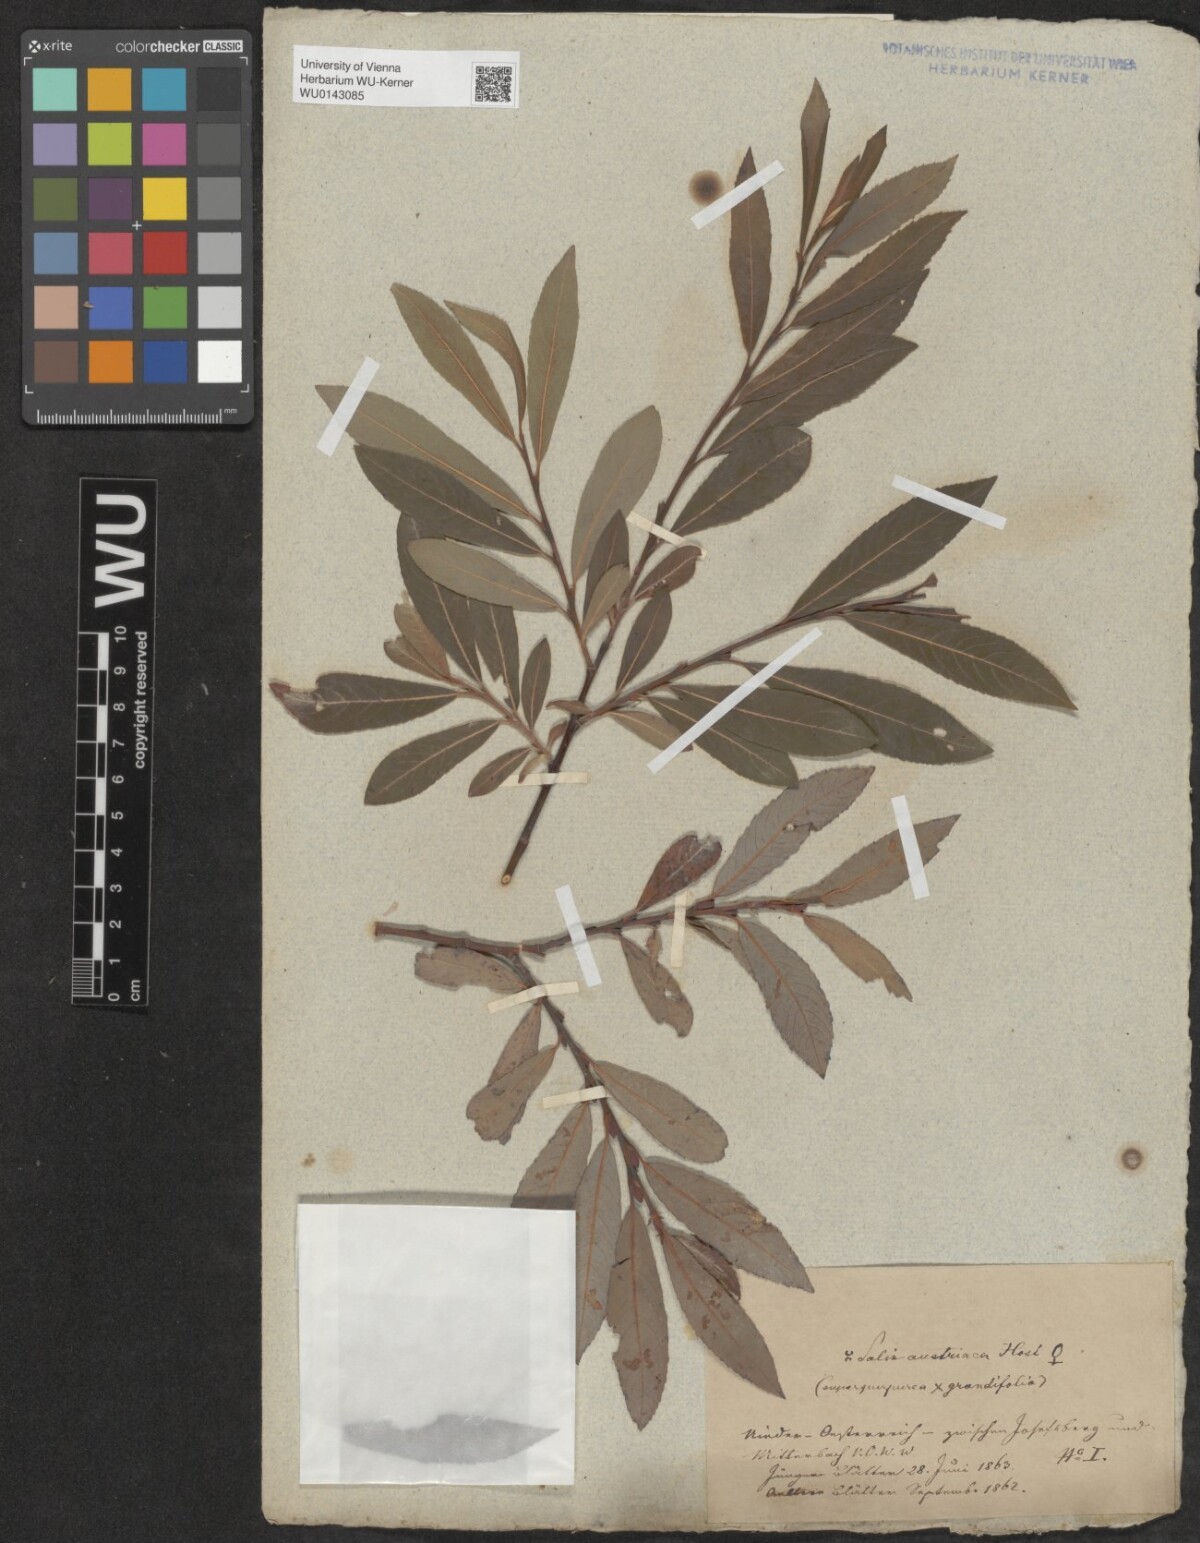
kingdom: Plantae
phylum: Tracheophyta
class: Magnoliopsida
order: Malpighiales
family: Salicaceae
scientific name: Salicaceae
